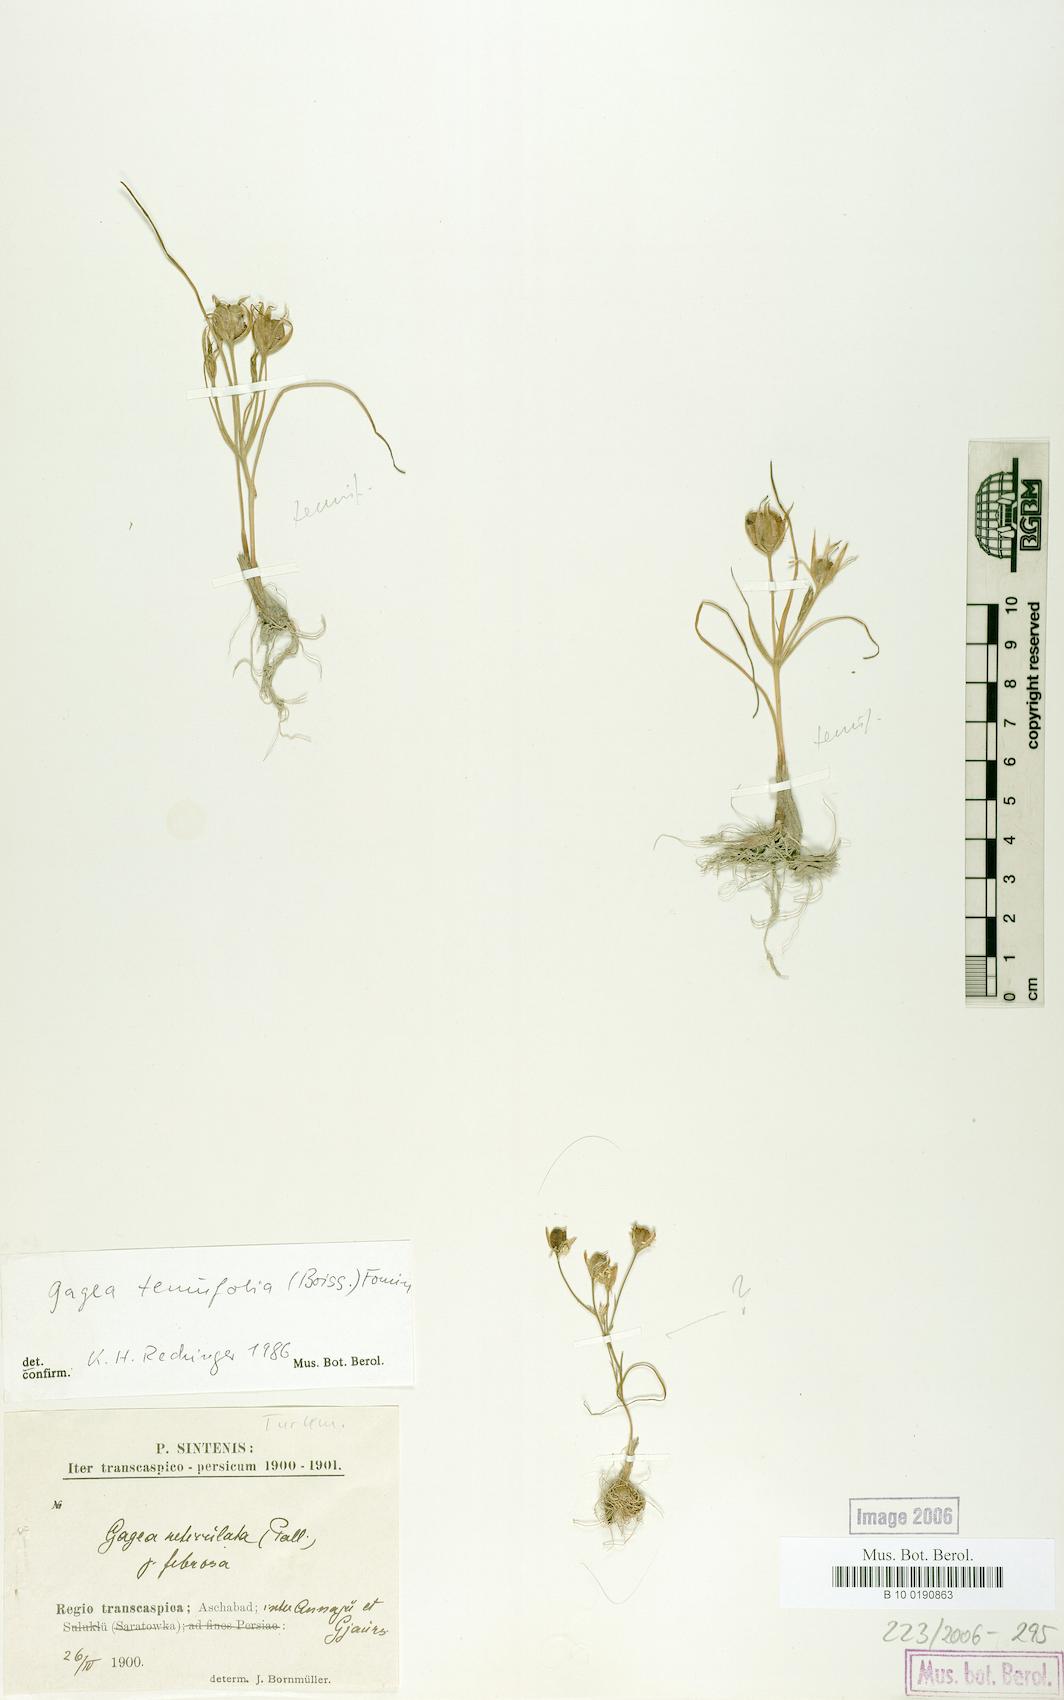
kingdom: Plantae
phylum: Tracheophyta
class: Liliopsida
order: Liliales
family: Liliaceae
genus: Gagea
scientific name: Gagea reticulata
